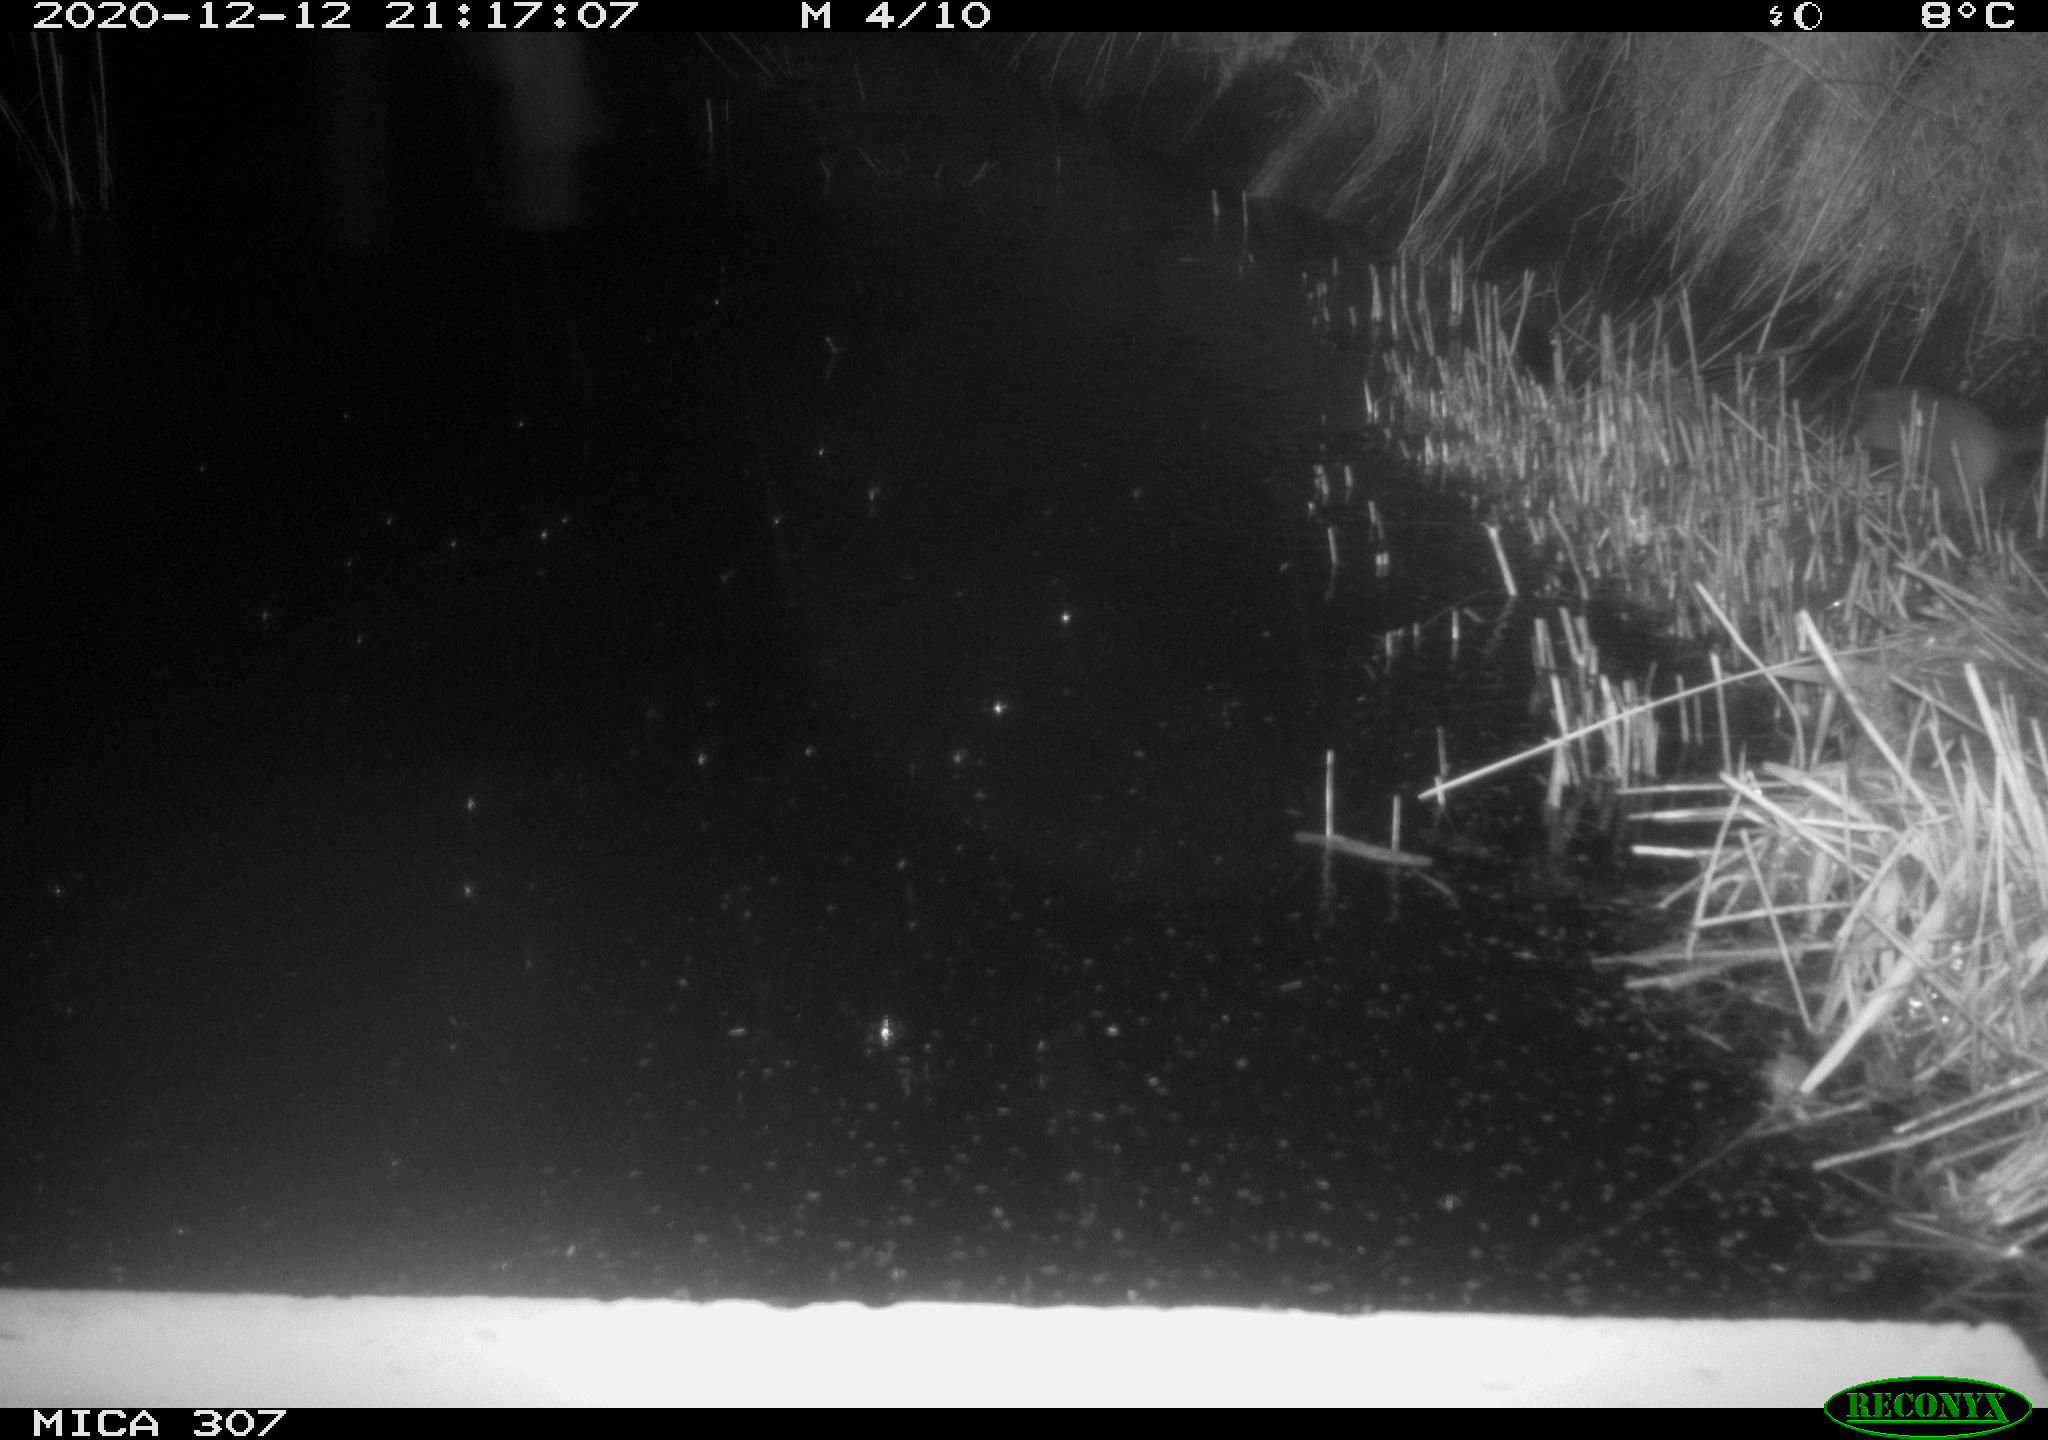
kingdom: Animalia
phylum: Chordata
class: Mammalia
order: Rodentia
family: Muridae
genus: Rattus
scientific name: Rattus norvegicus
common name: Brown rat
